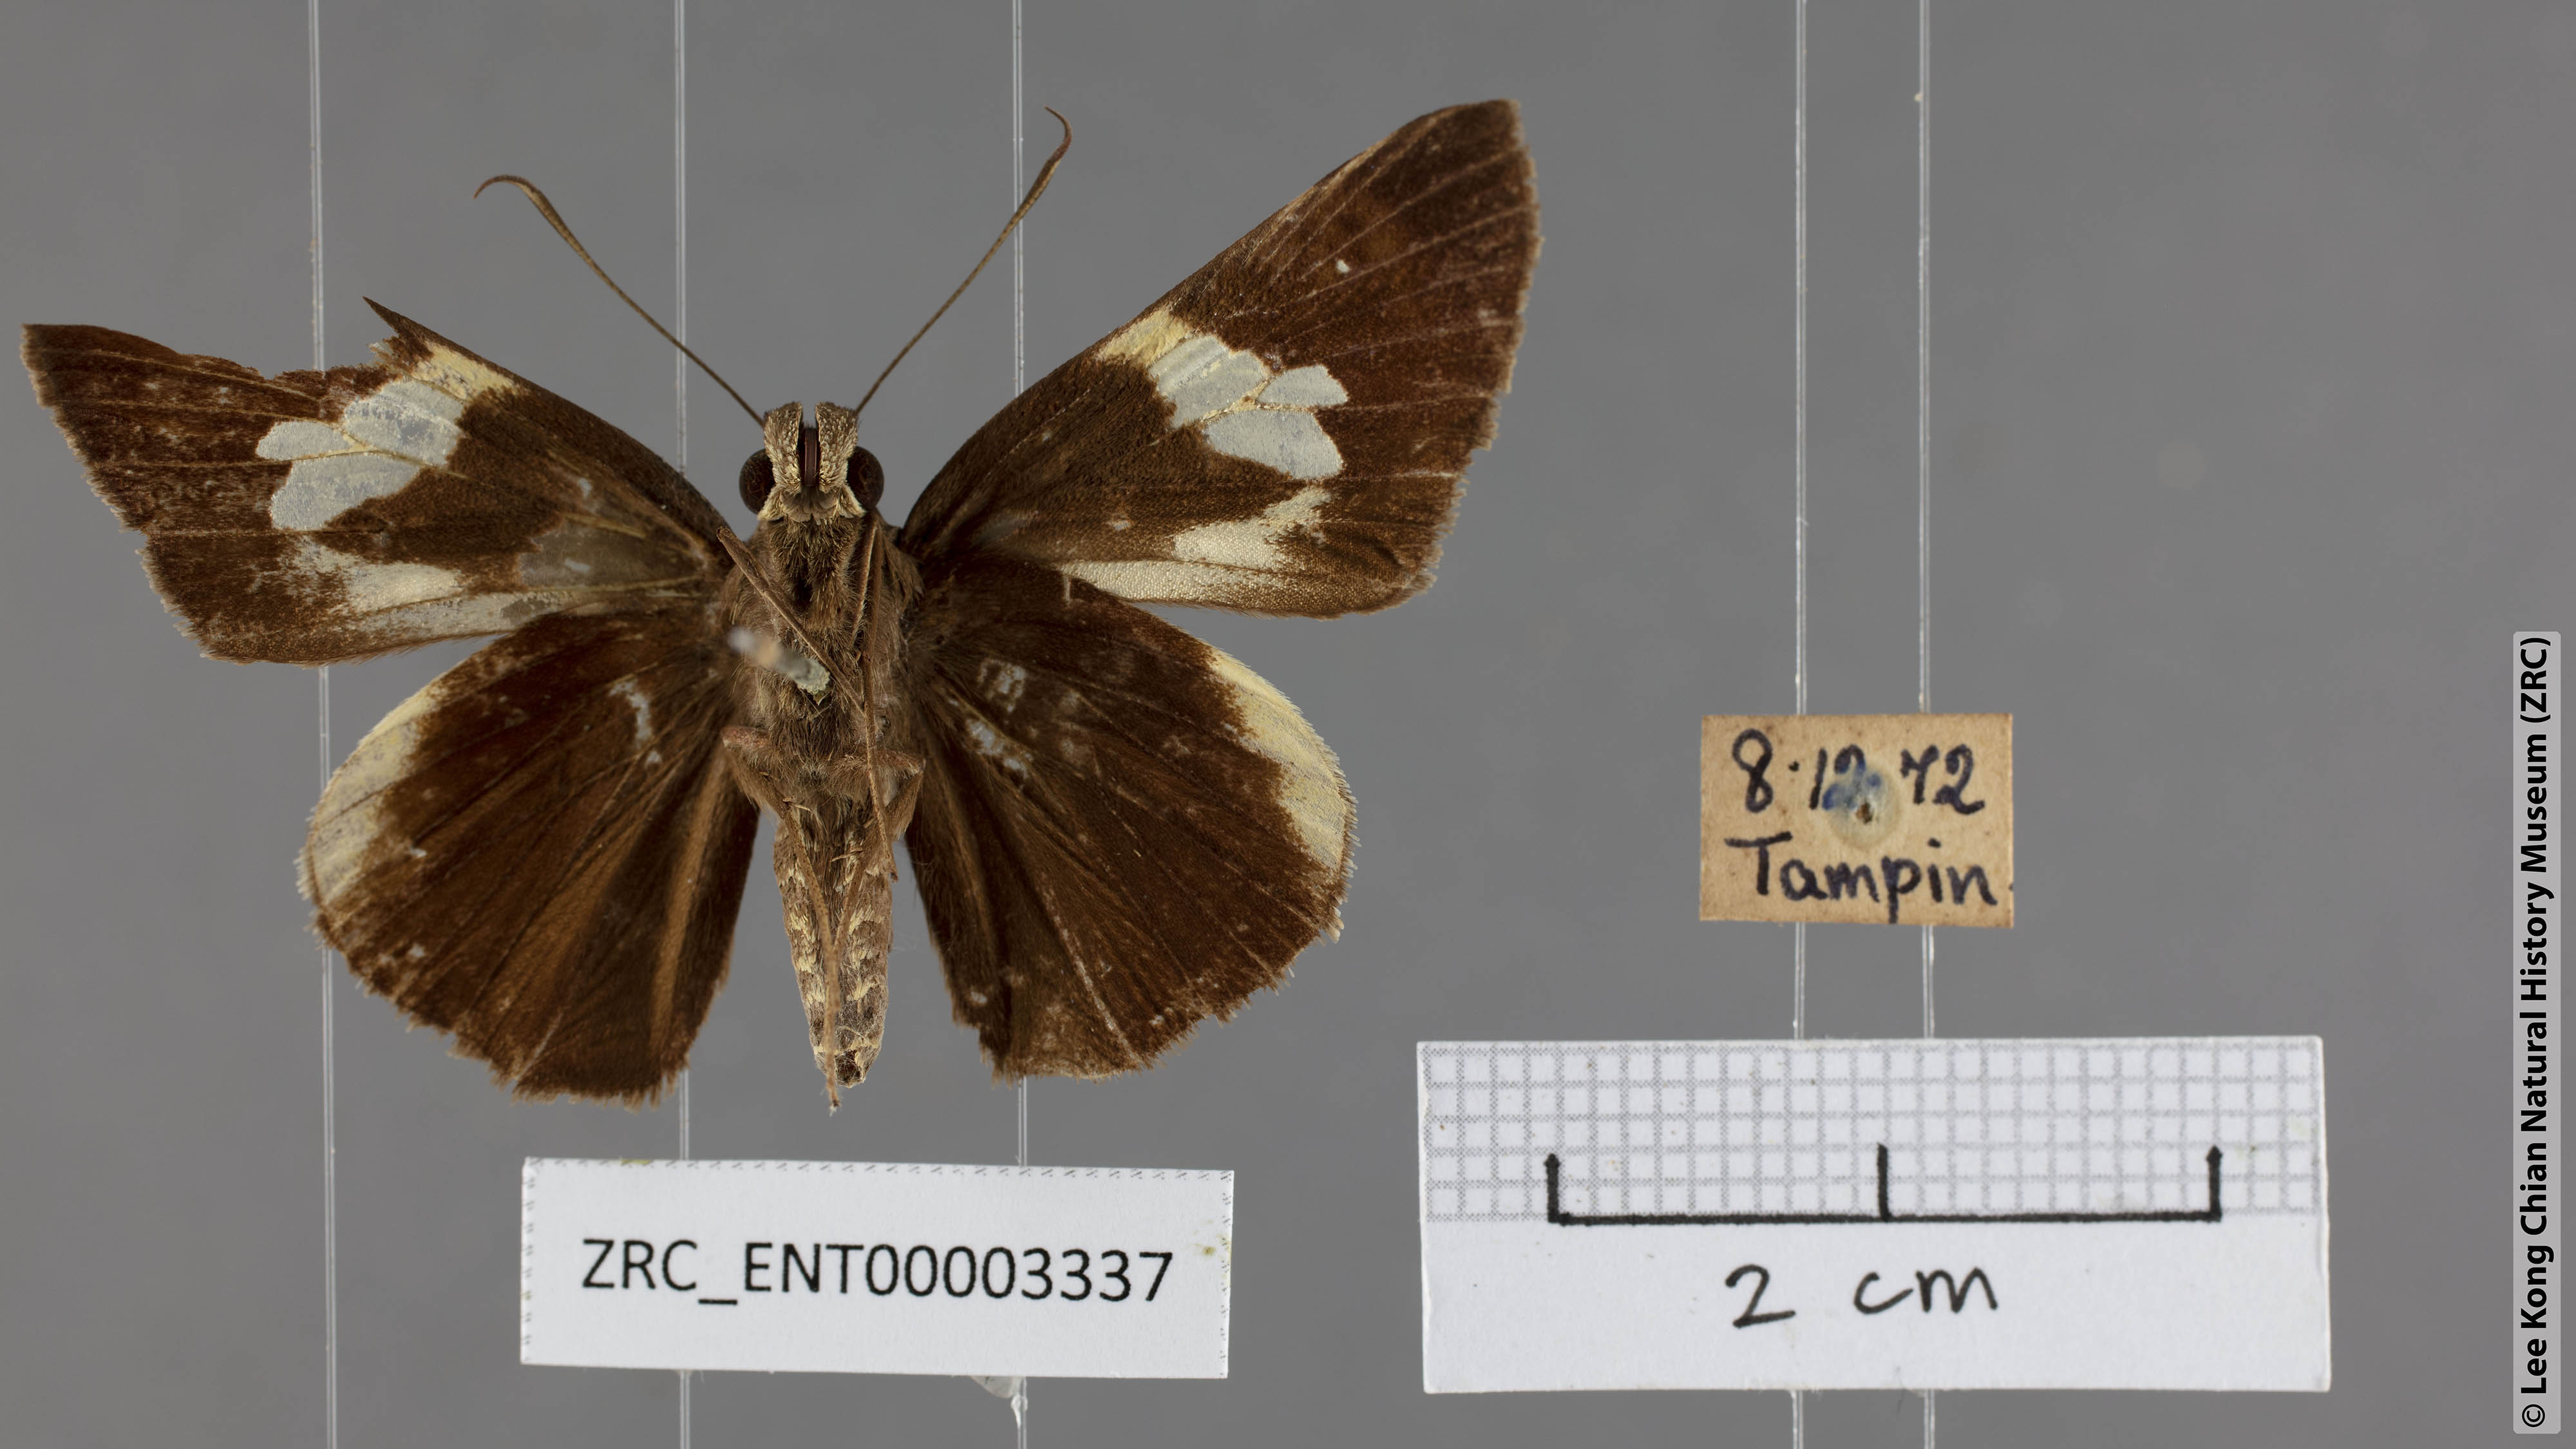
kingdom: Animalia
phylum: Arthropoda
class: Insecta
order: Lepidoptera
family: Hesperiidae
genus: Lotongus
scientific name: Lotongus calathus
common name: White-tipped palmer
